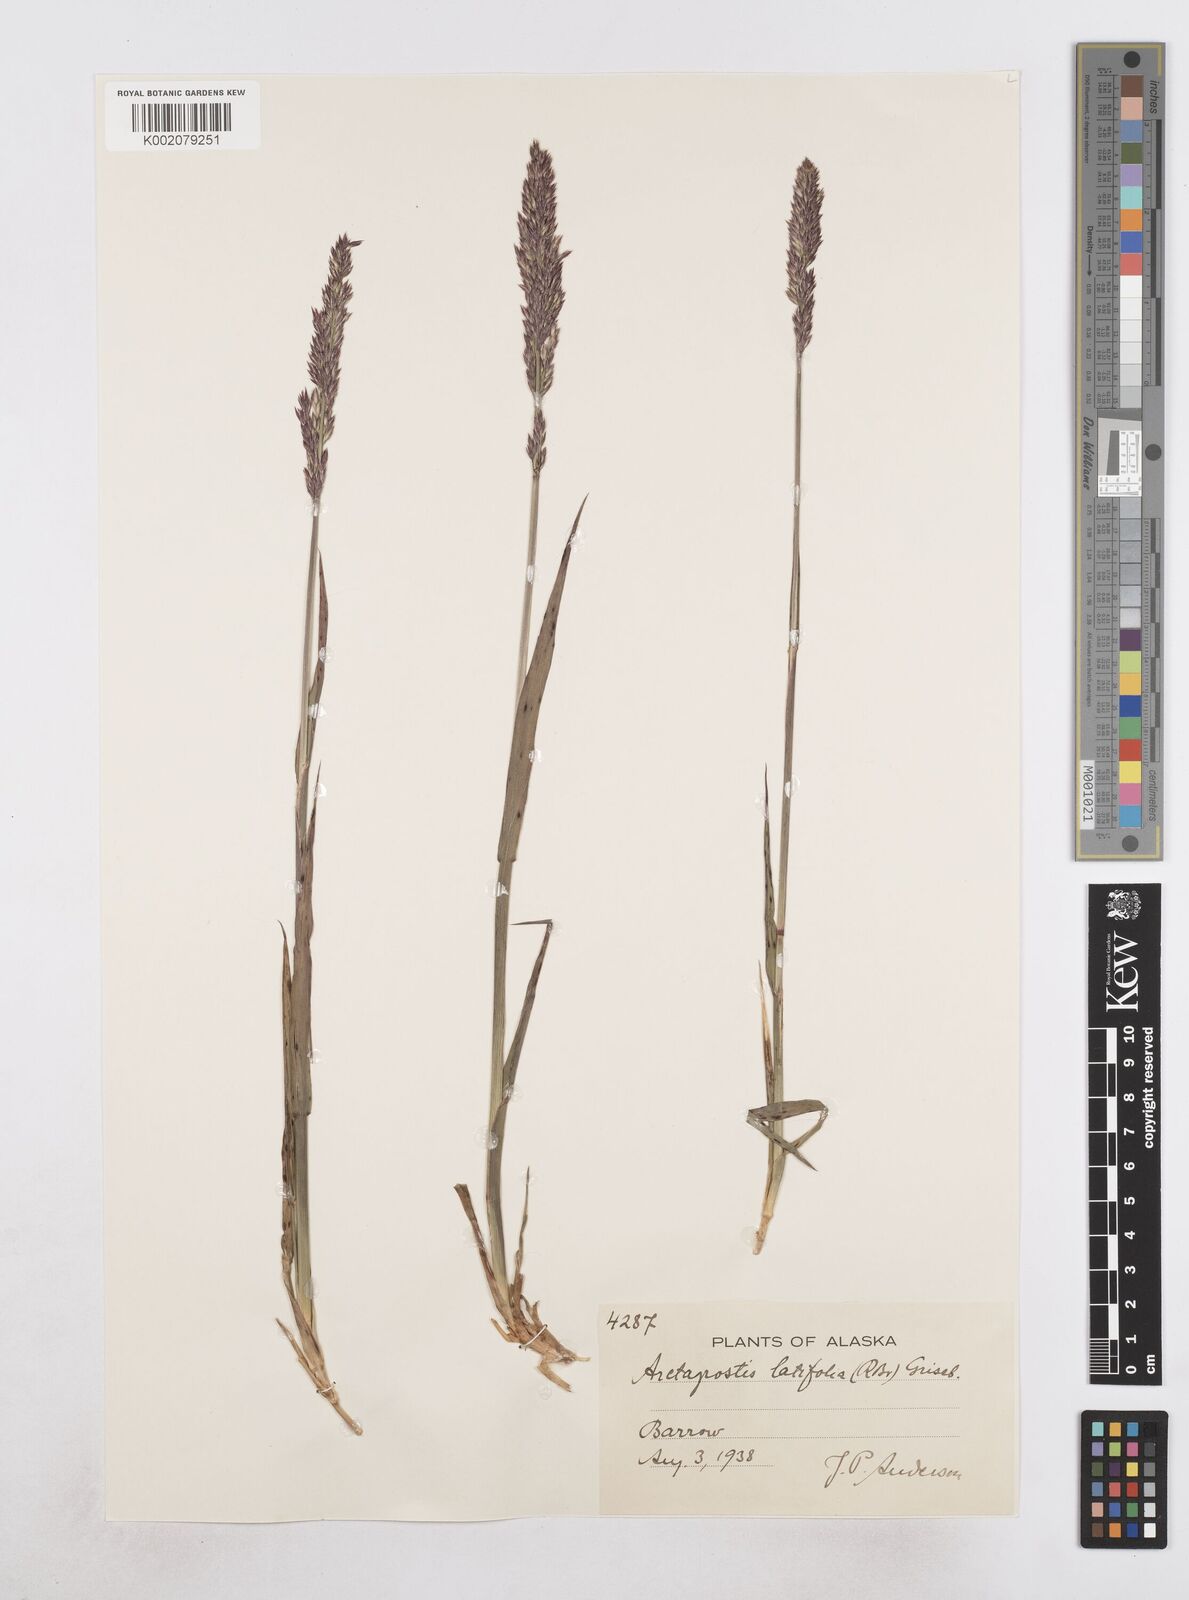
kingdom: Plantae
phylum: Tracheophyta
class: Liliopsida
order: Poales
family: Poaceae
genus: Arctagrostis
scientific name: Arctagrostis latifolia
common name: Arctic grass
